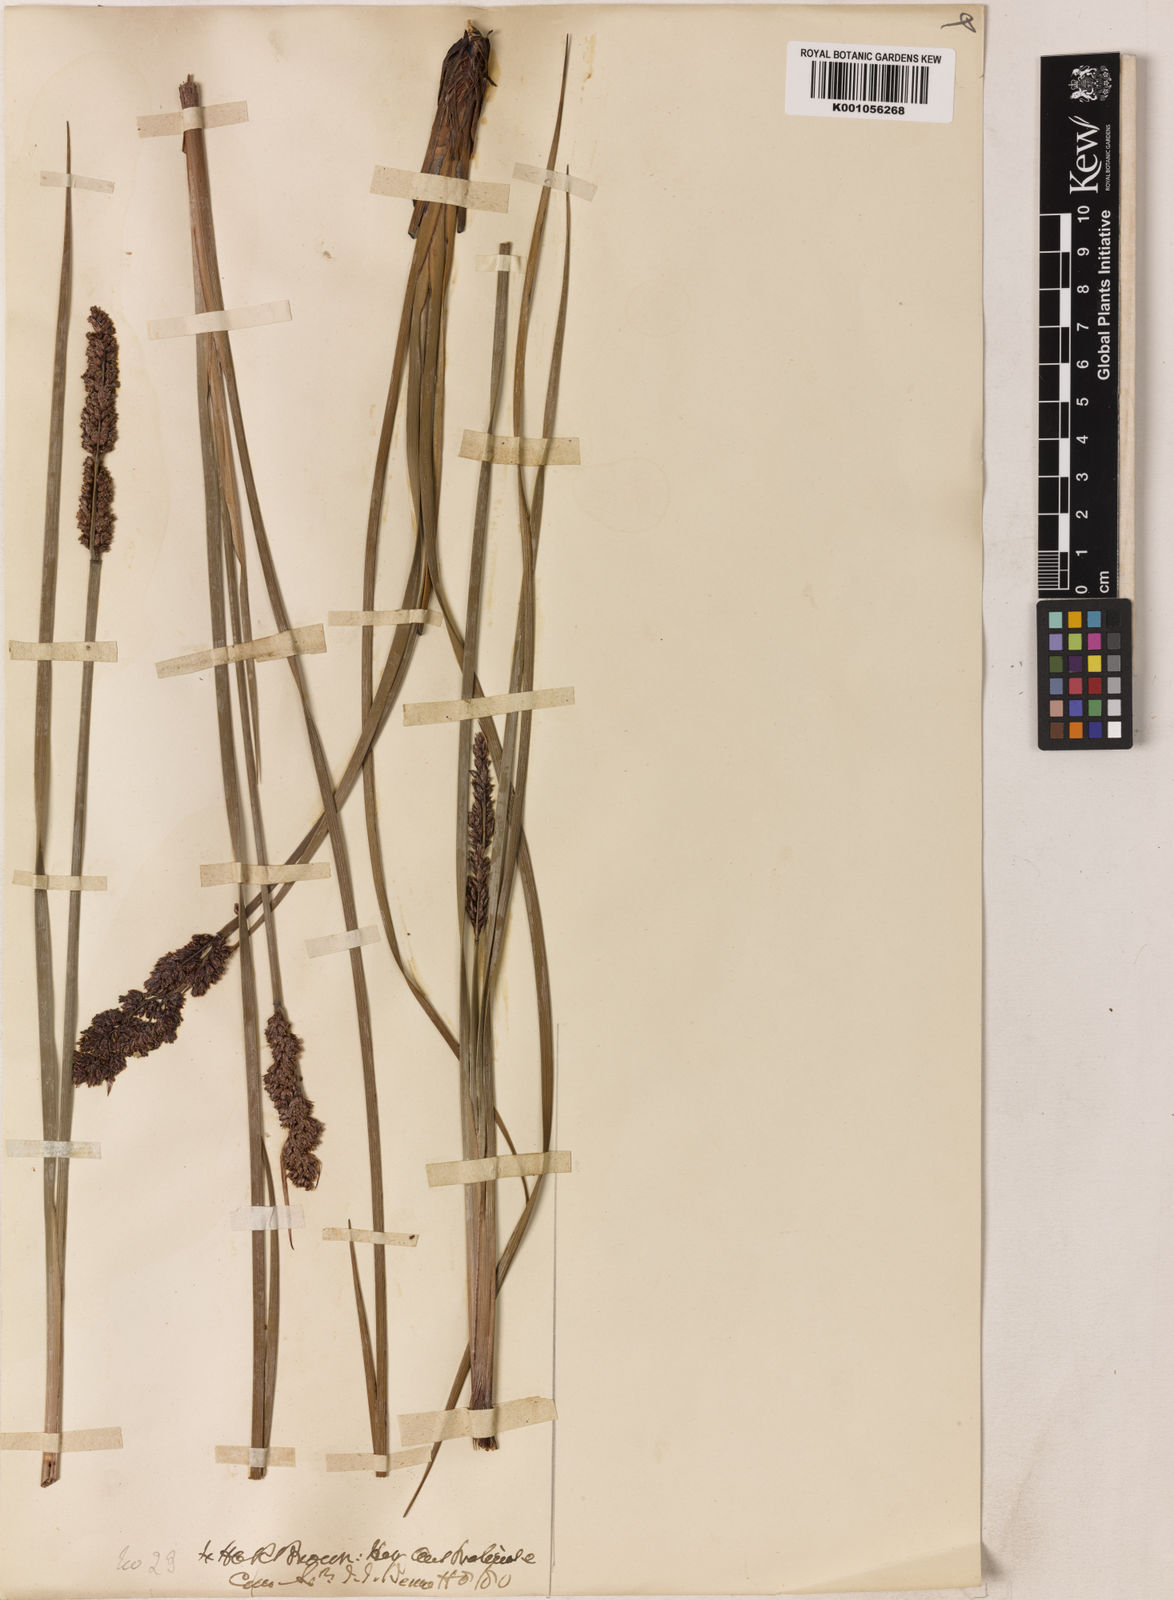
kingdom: Plantae
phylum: Tracheophyta
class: Liliopsida
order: Poales
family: Restionaceae
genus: Anarthria
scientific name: Anarthria laevis
